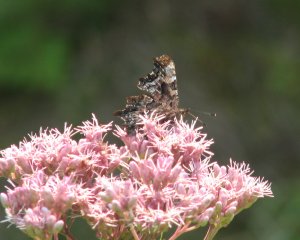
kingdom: Animalia
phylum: Arthropoda
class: Insecta
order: Lepidoptera
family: Nymphalidae
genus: Polygonia
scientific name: Polygonia faunus
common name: Green Comma
